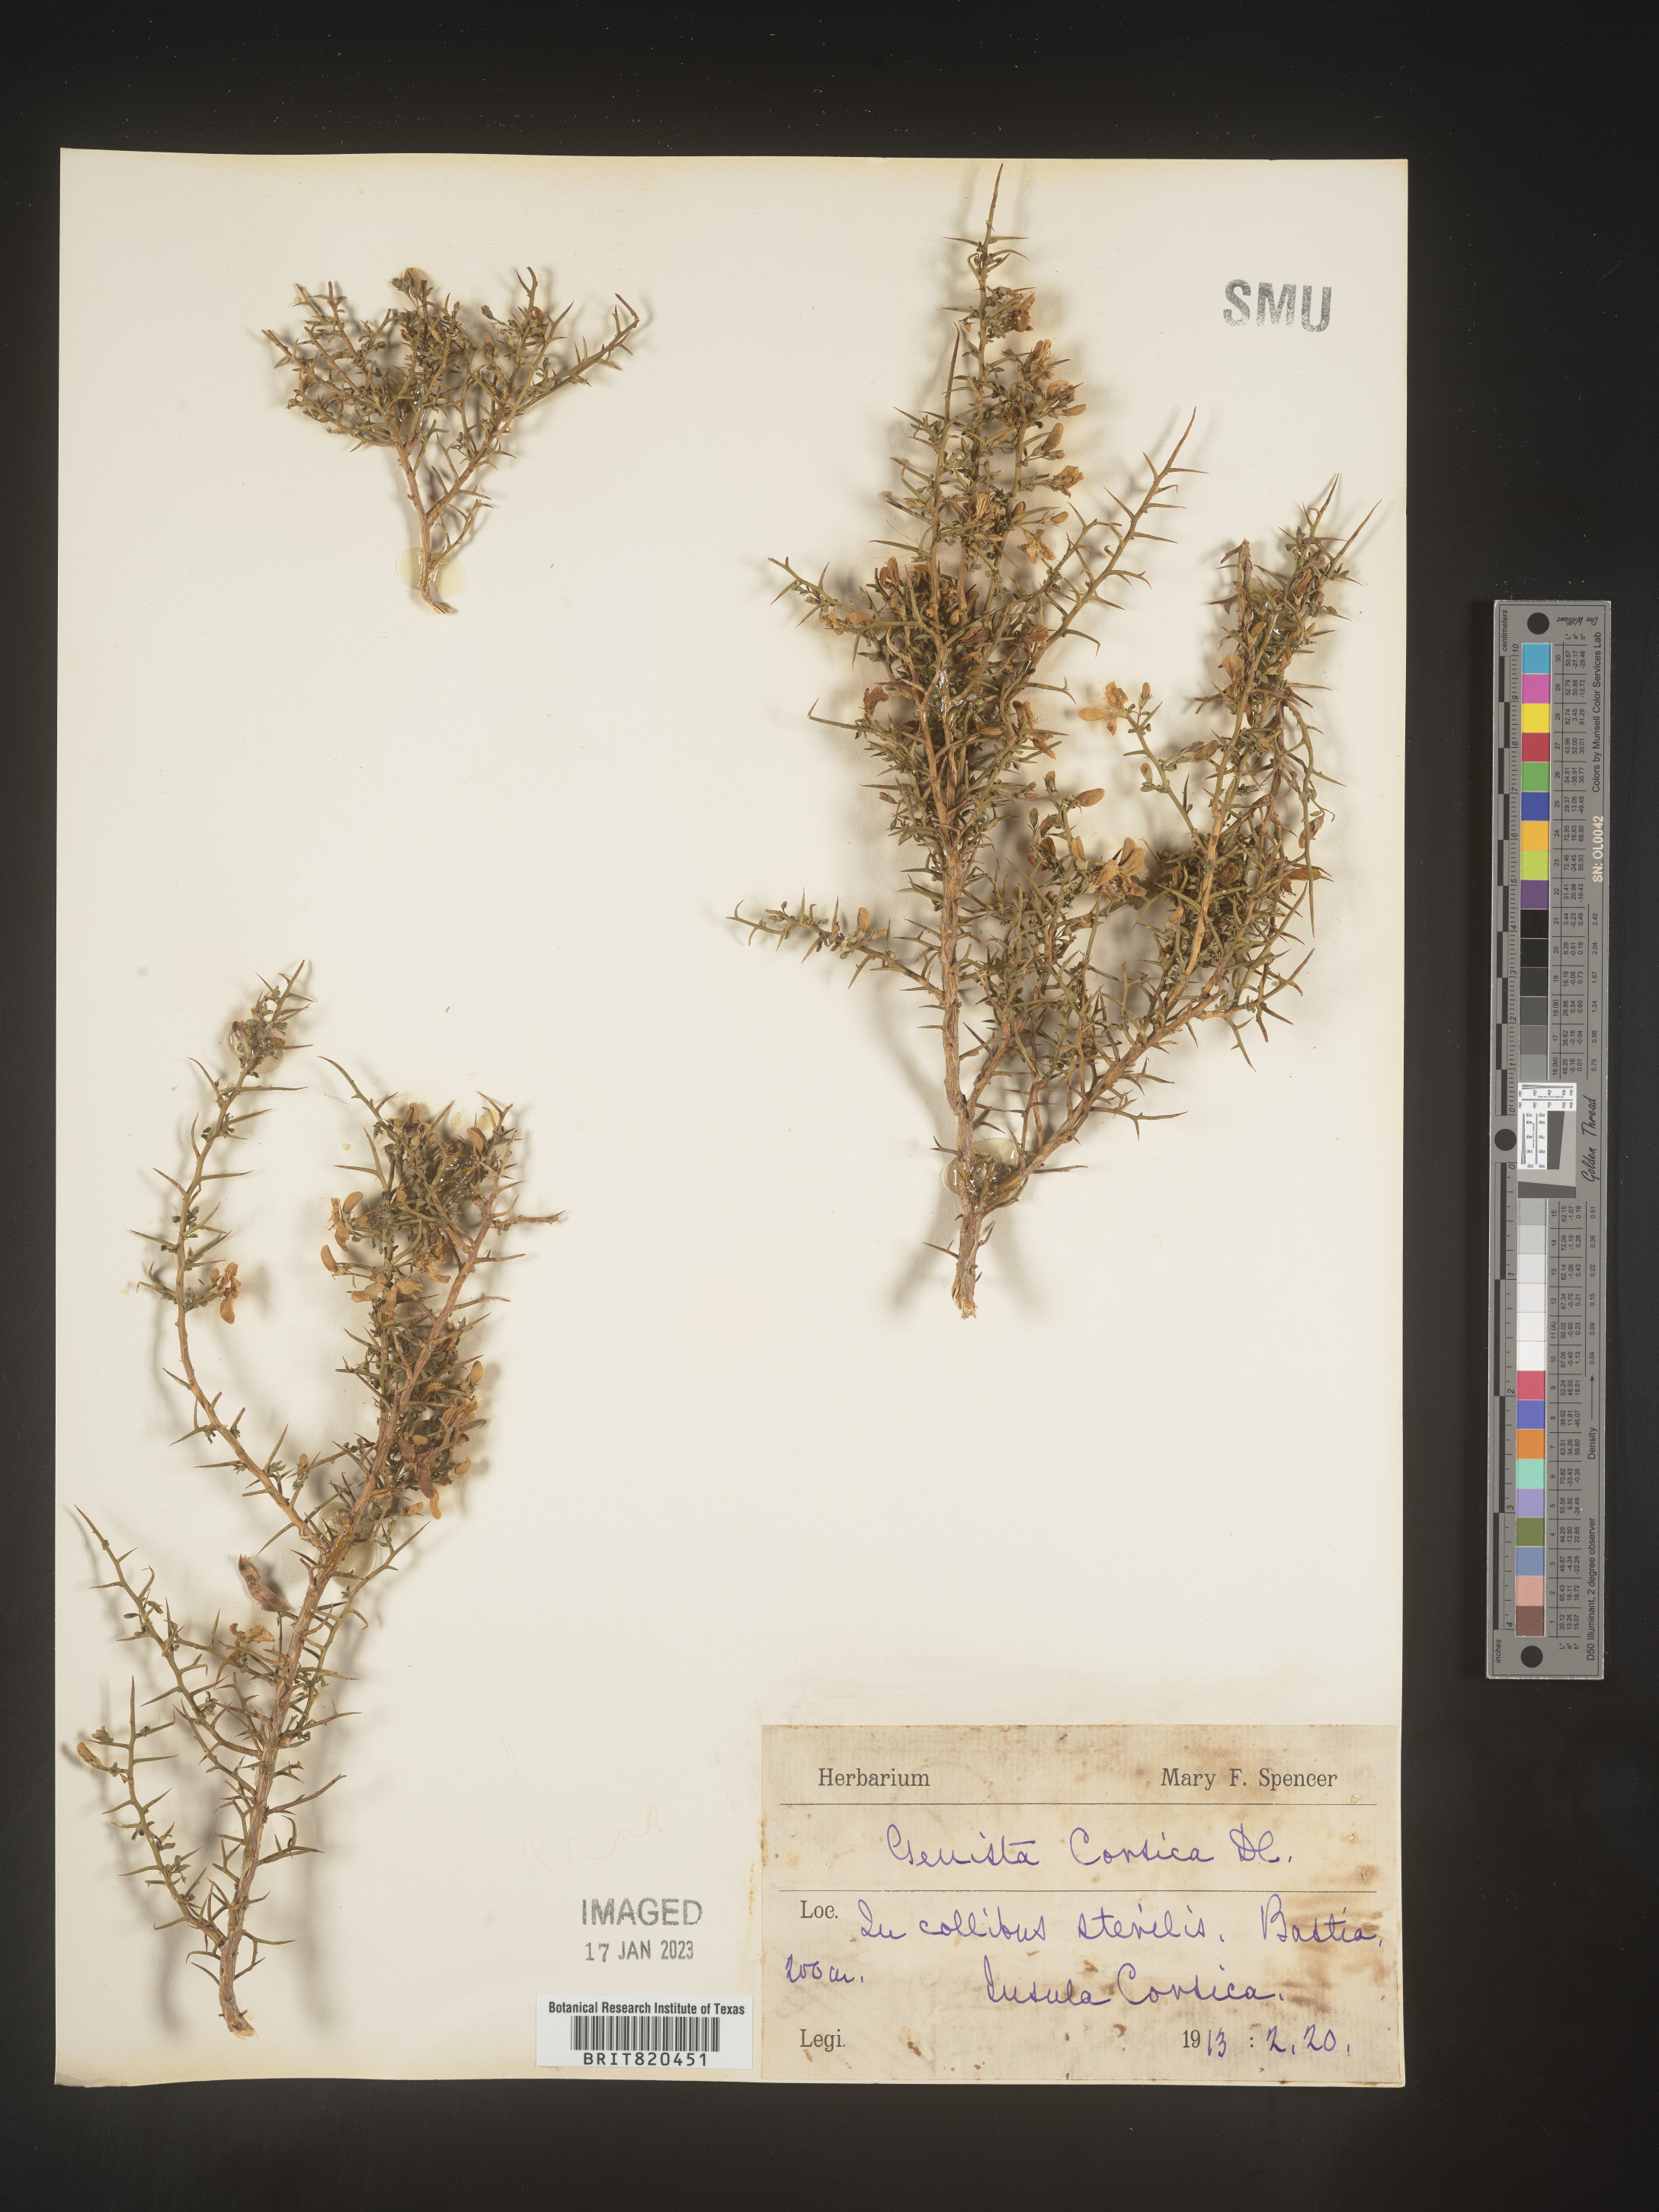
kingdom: Plantae
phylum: Tracheophyta
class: Magnoliopsida
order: Fabales
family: Fabaceae
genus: Genista
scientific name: Genista
